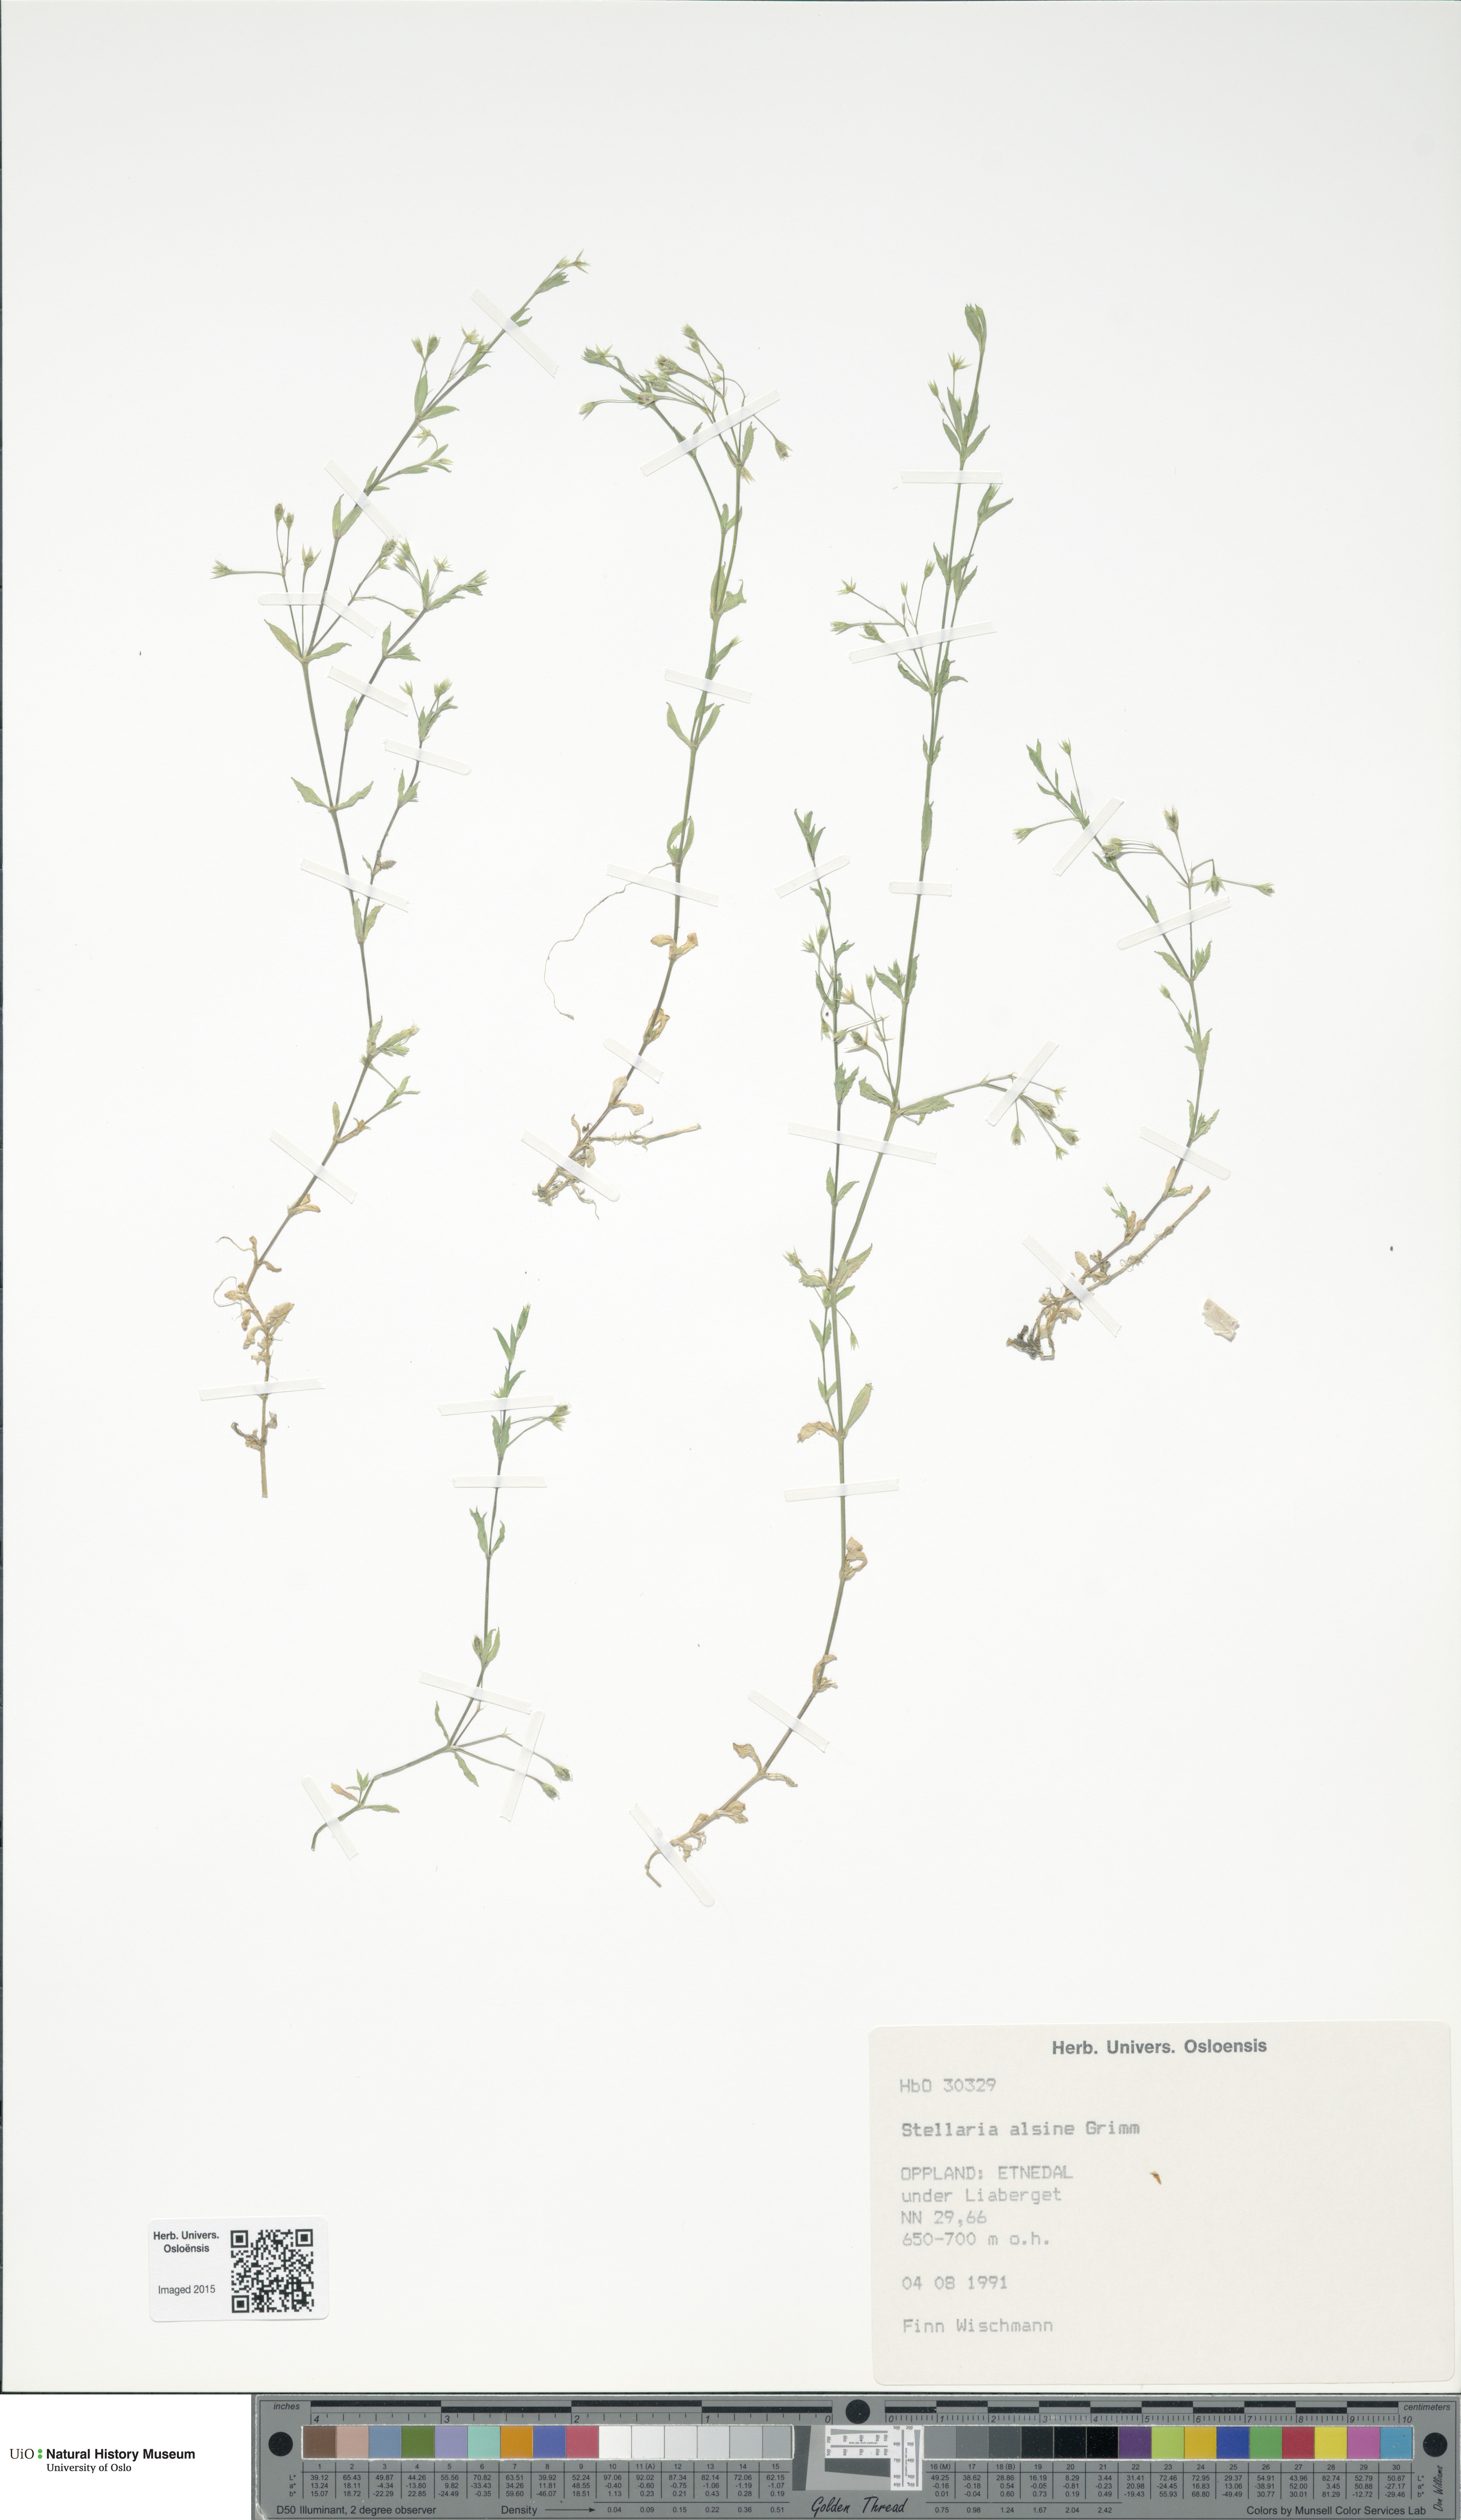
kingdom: Plantae
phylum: Tracheophyta
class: Magnoliopsida
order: Caryophyllales
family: Caryophyllaceae
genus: Stellaria
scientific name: Stellaria alsine
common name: Bog stitchwort
